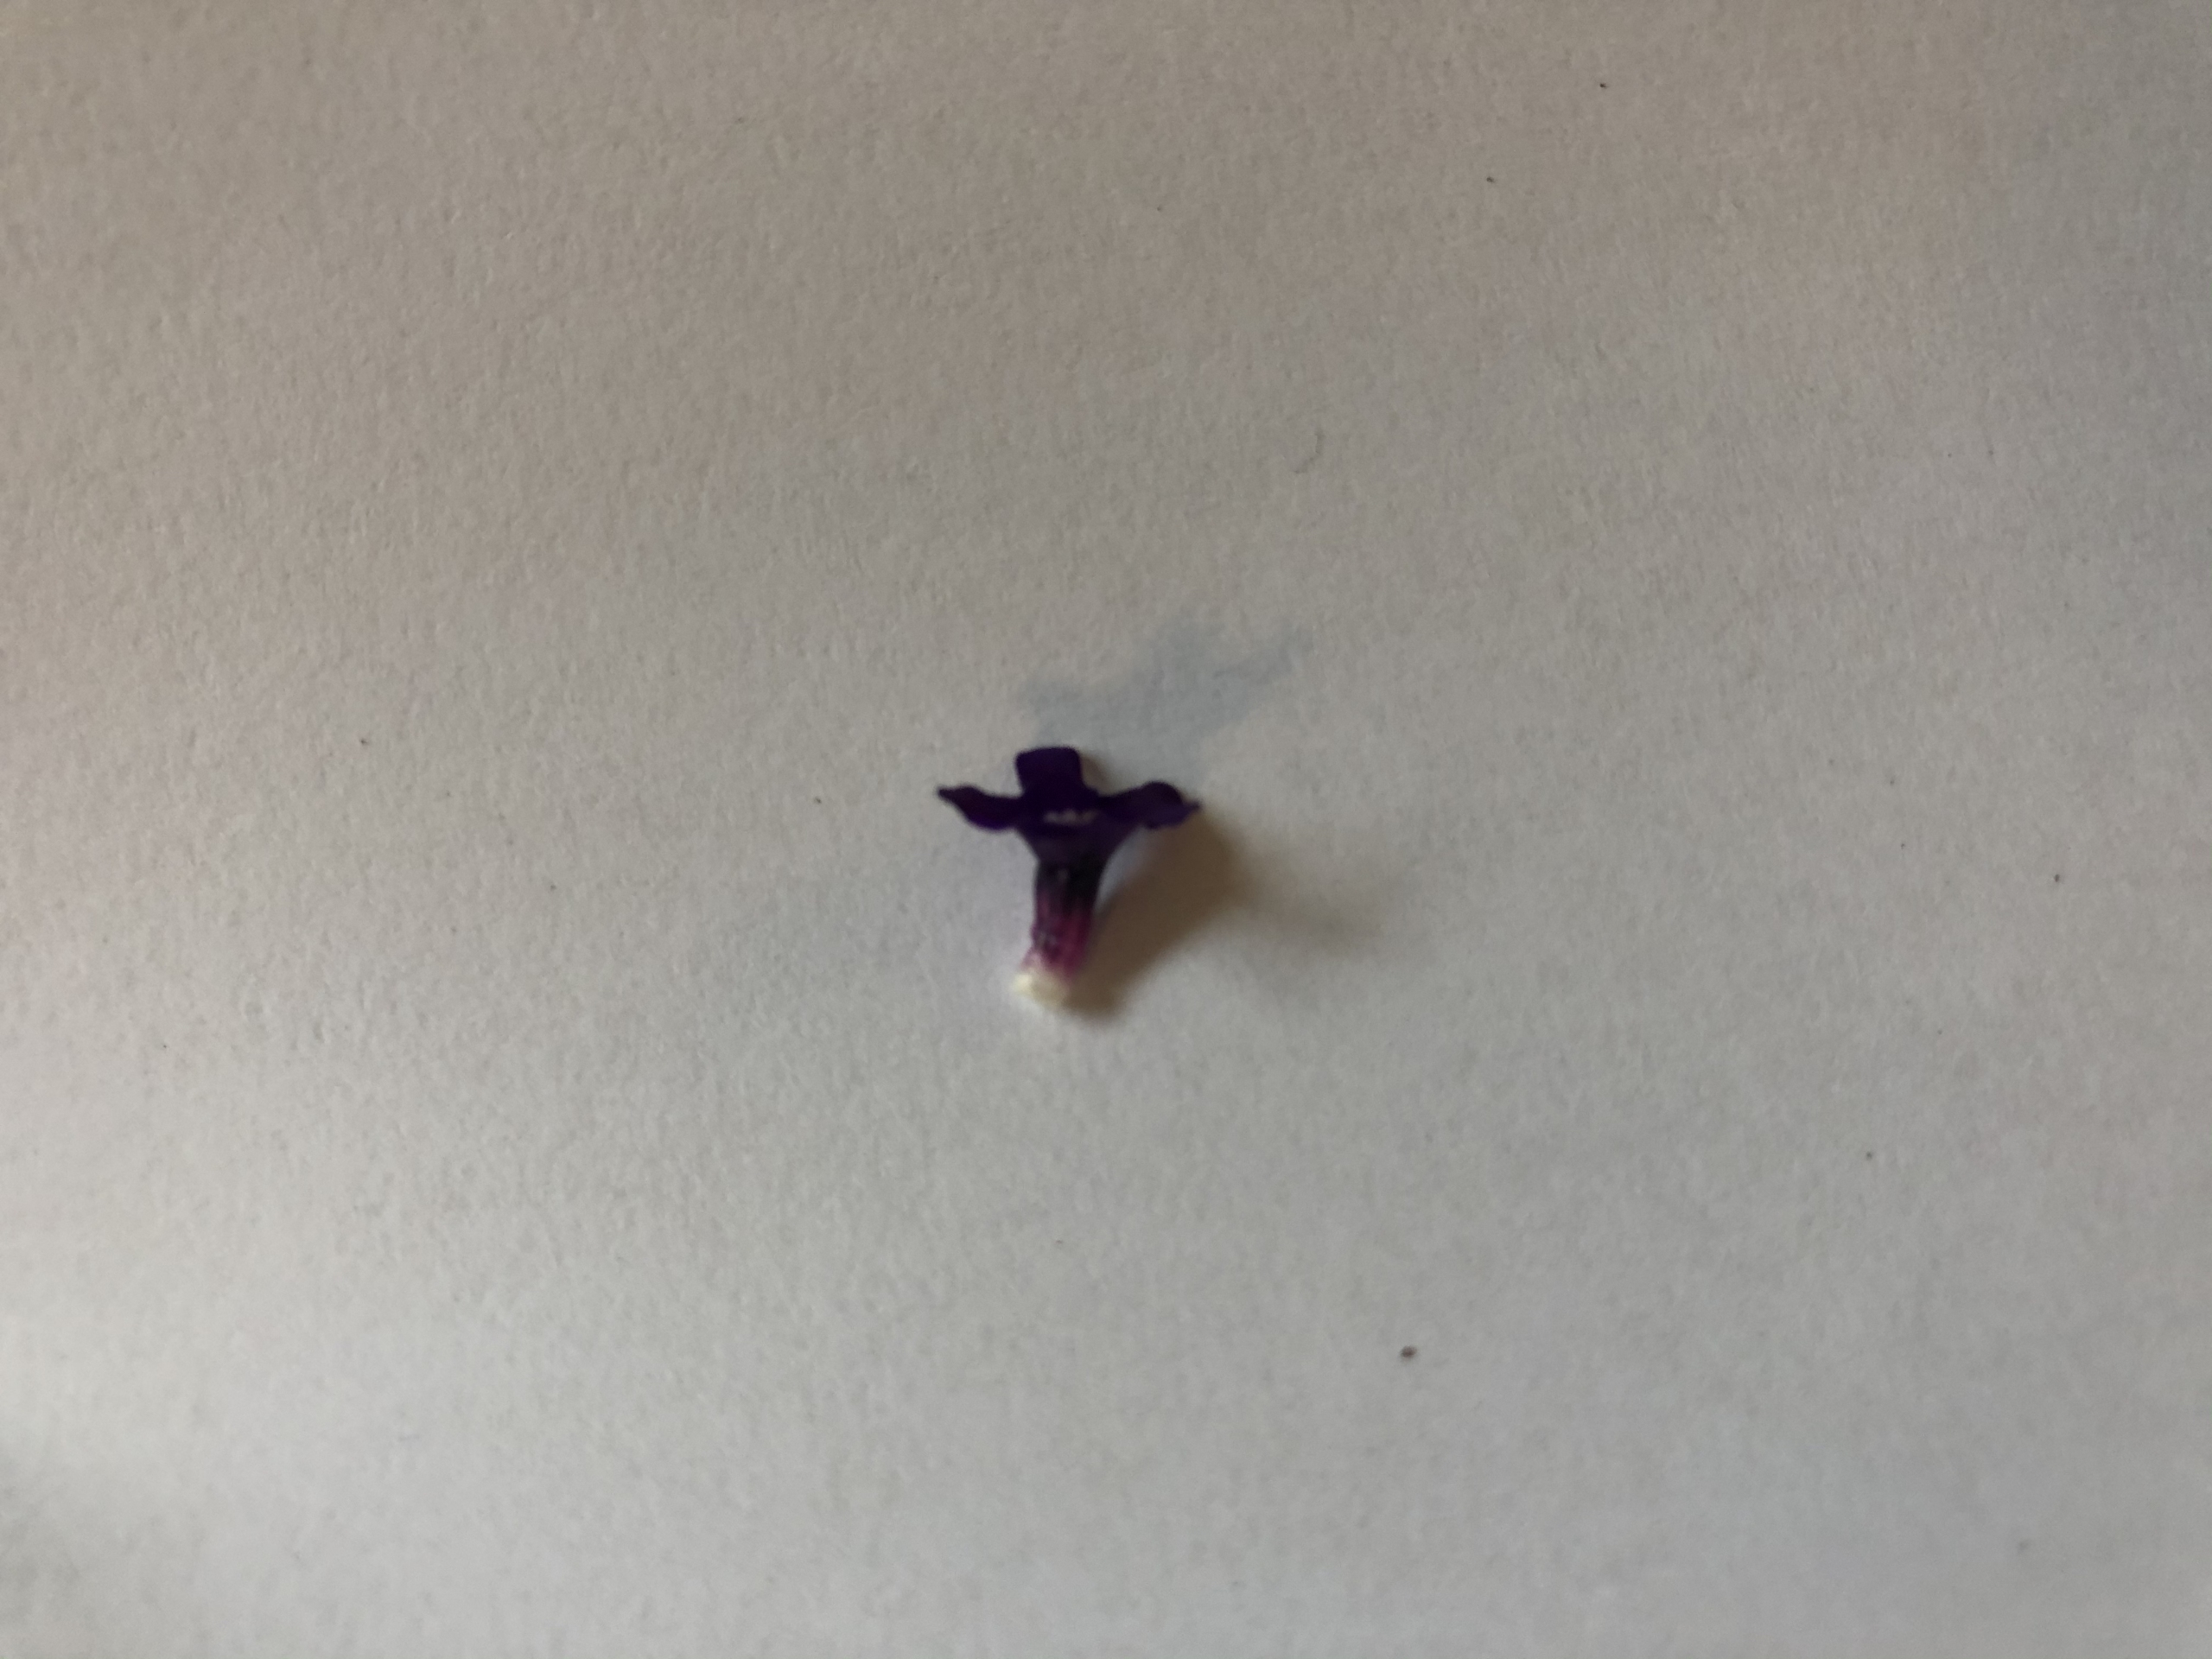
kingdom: Plantae
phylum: Tracheophyta
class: Magnoliopsida
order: Boraginales
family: Boraginaceae
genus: Anchusa
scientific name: Anchusa officinalis
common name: Læge-oksetunge
